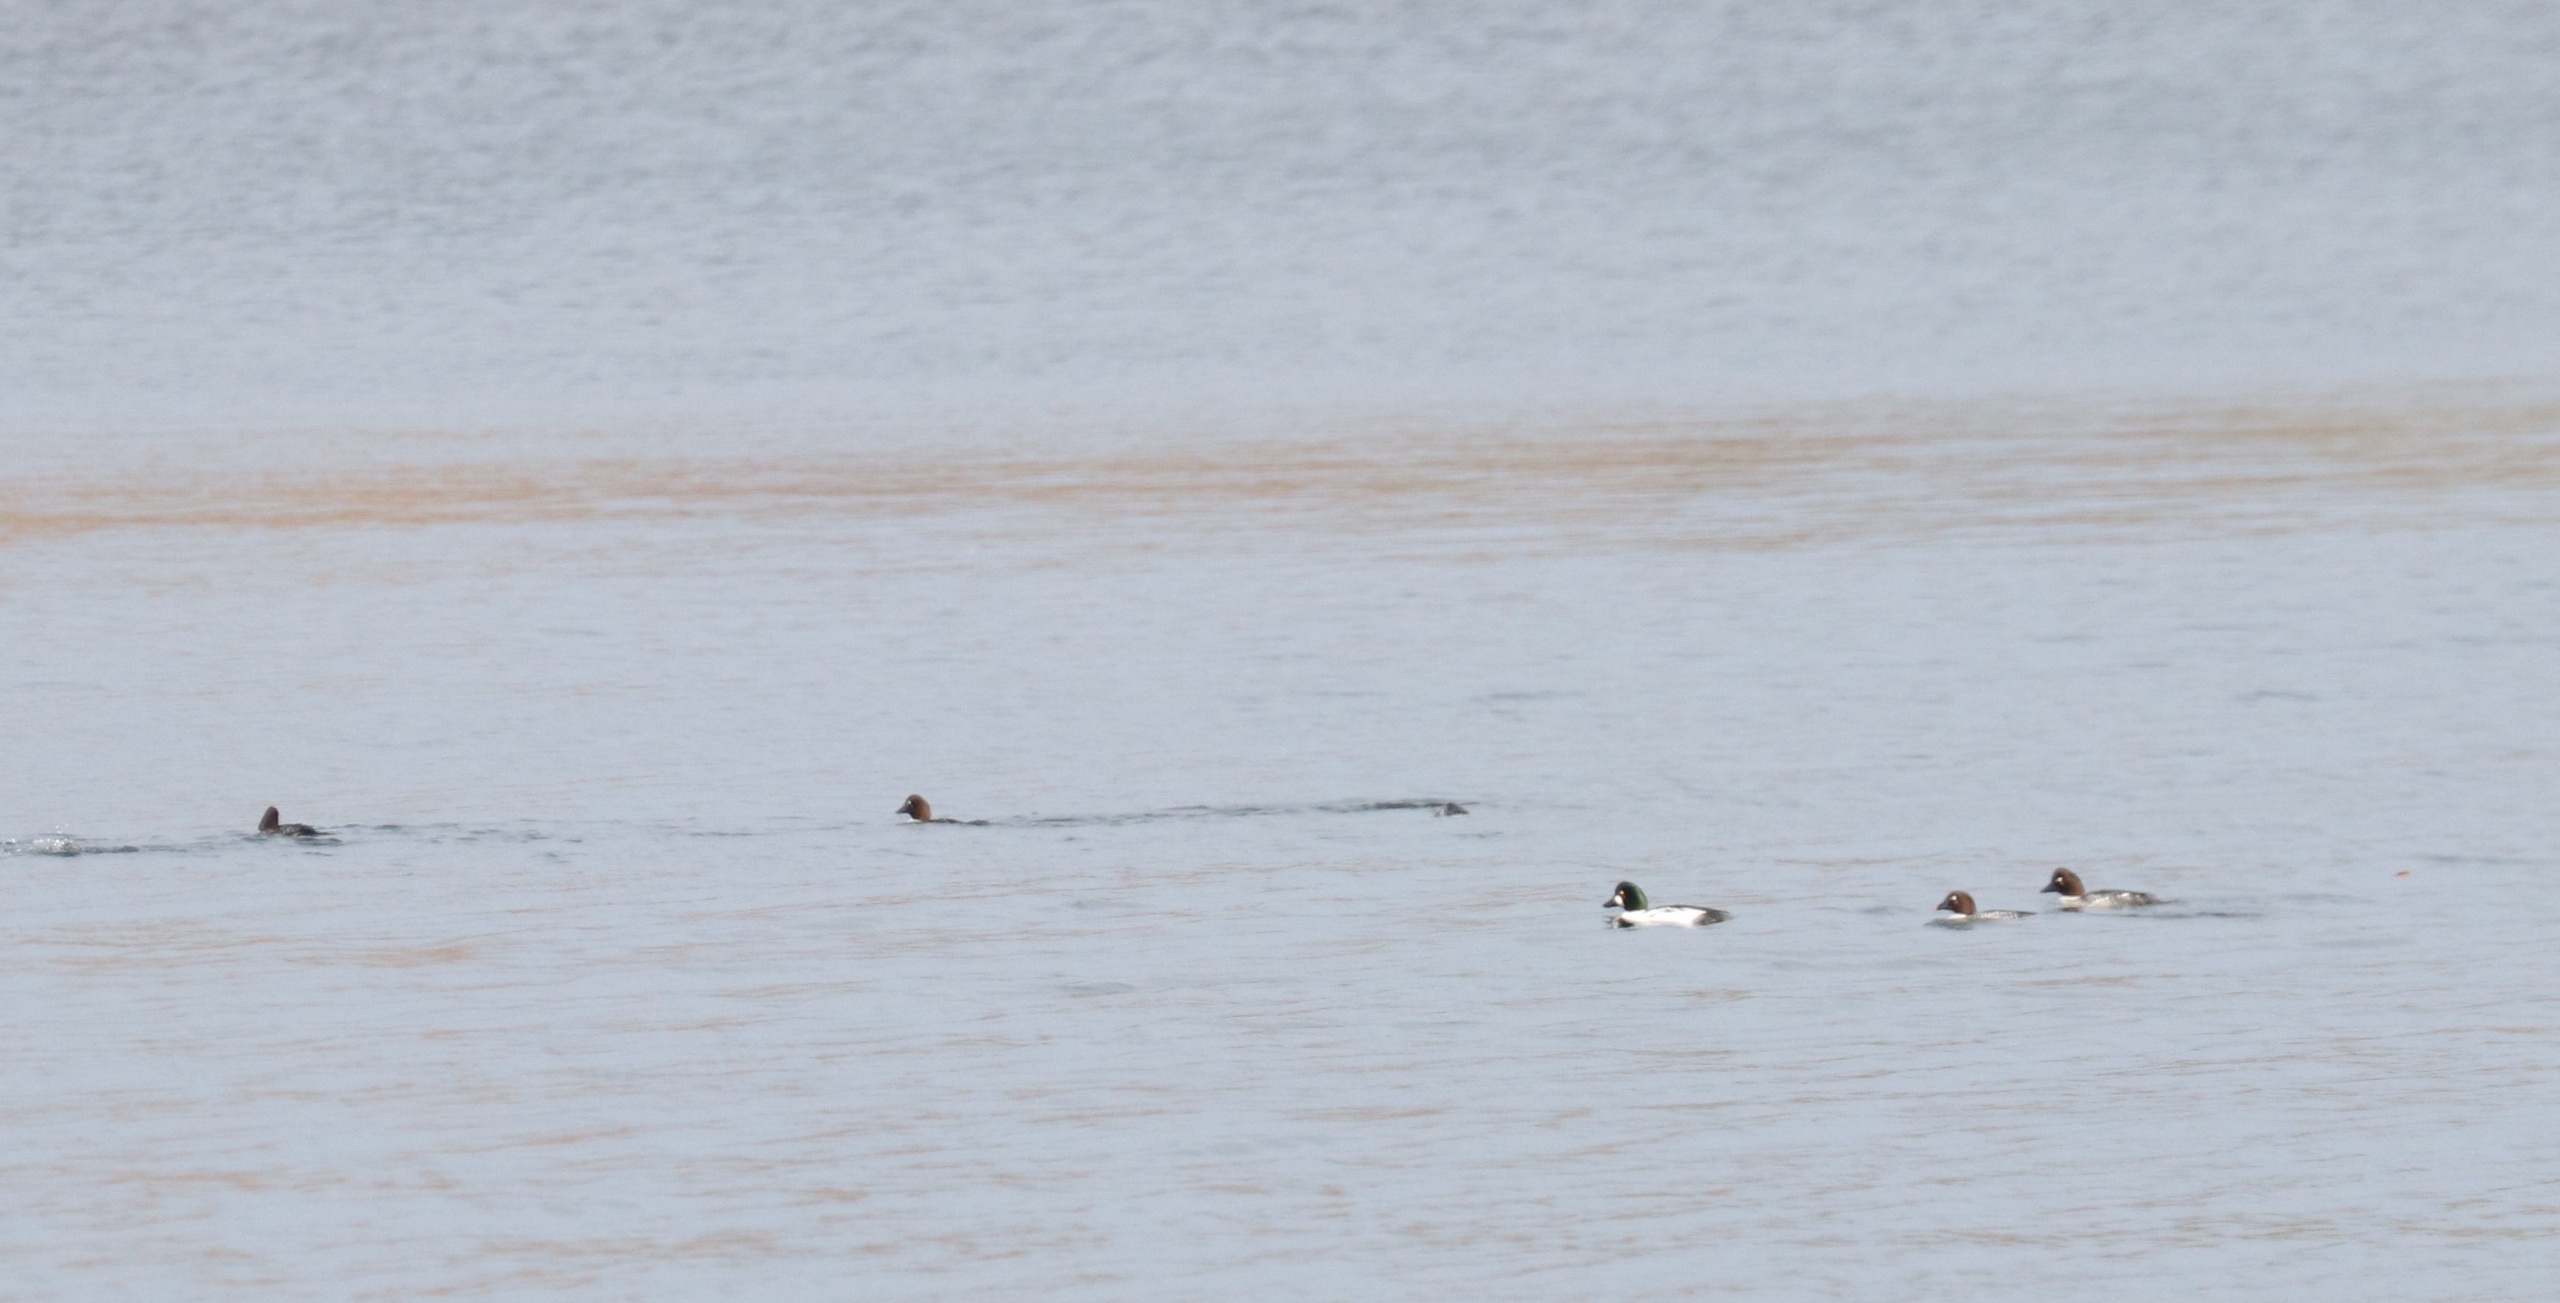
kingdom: Animalia
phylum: Chordata
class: Aves
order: Anseriformes
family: Anatidae
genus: Bucephala
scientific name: Bucephala clangula
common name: Hvinand
